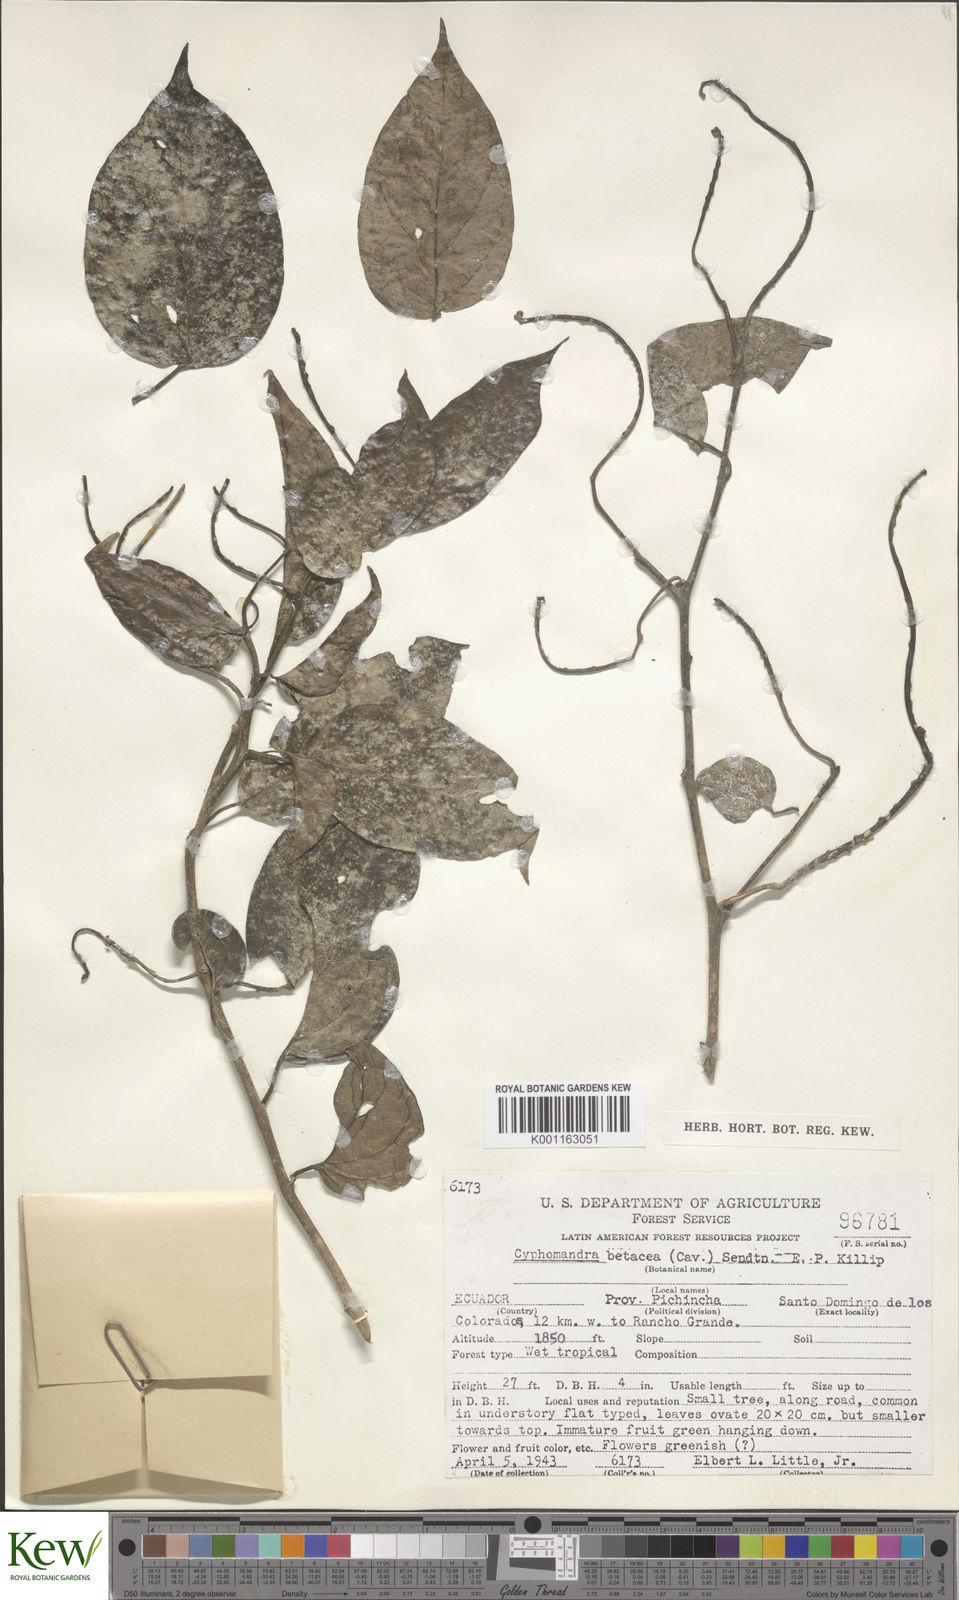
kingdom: Plantae
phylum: Tracheophyta
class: Magnoliopsida
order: Solanales
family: Solanaceae
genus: Solanum
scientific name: Solanum betaceum
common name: Tamarillo
